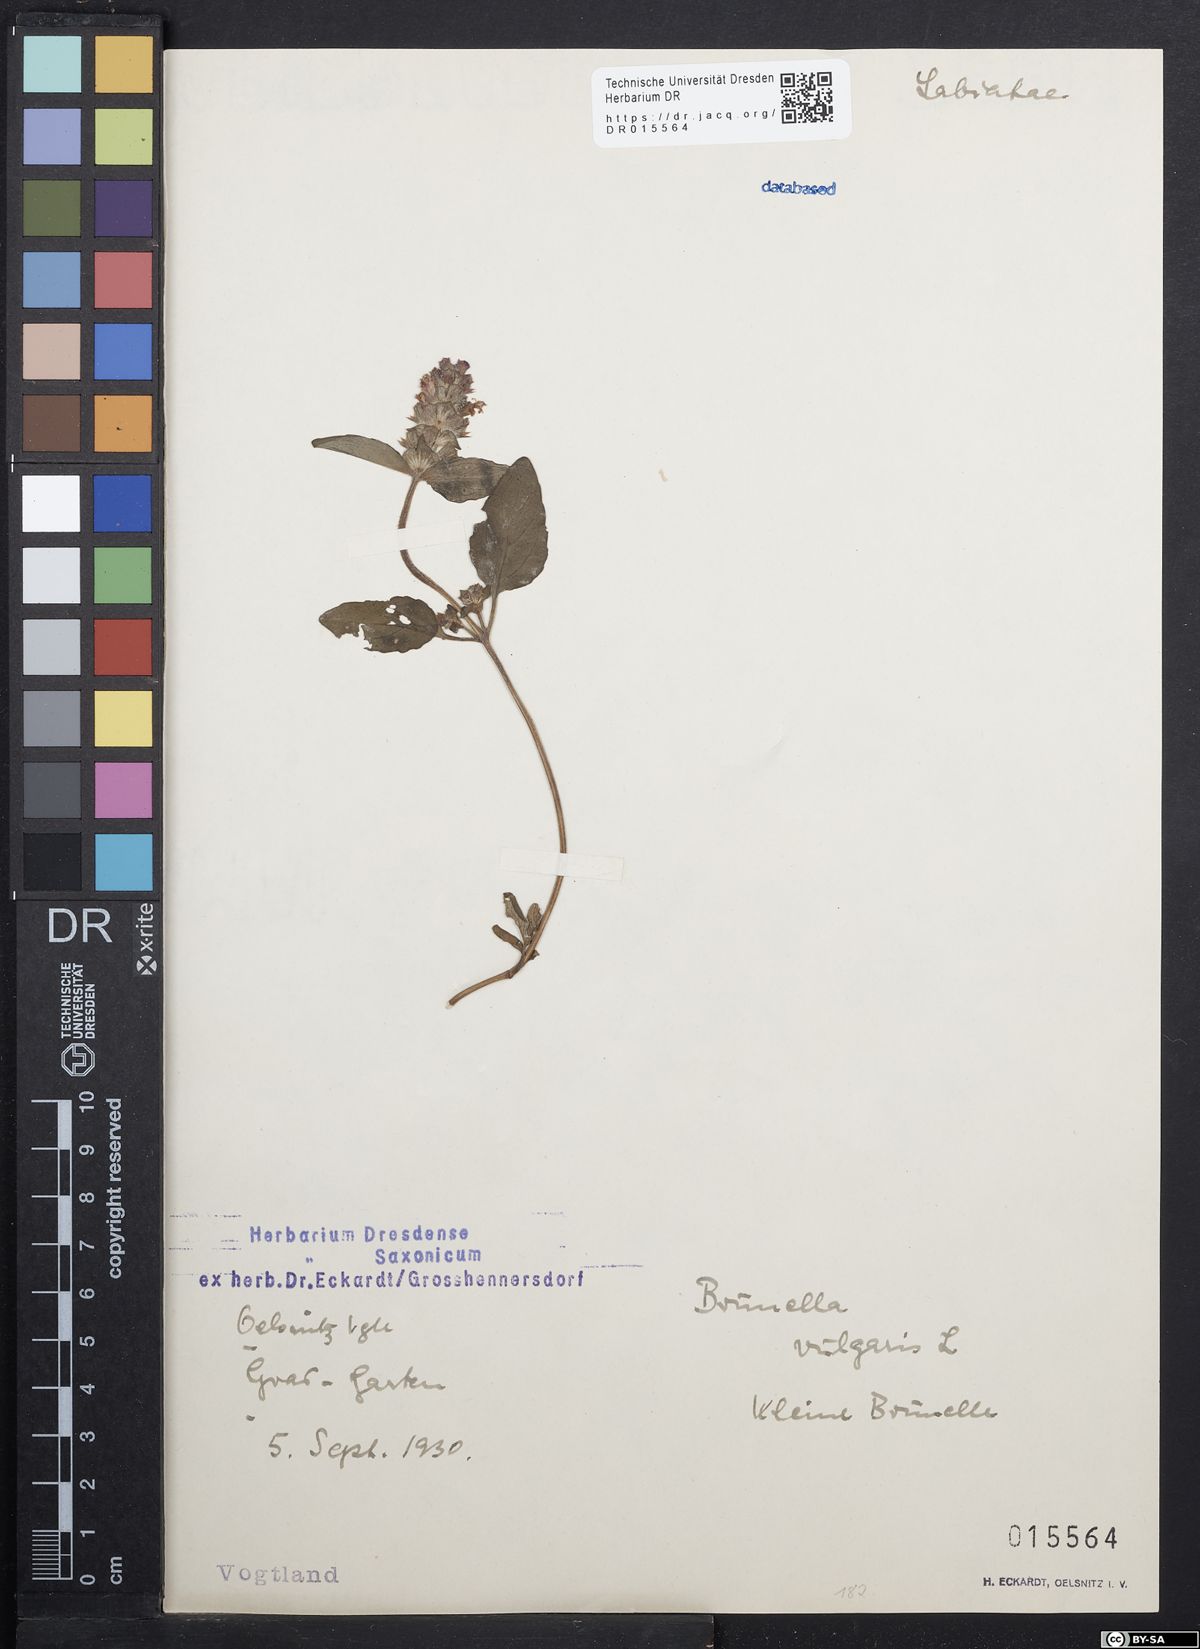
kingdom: Plantae
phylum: Tracheophyta
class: Magnoliopsida
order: Lamiales
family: Lamiaceae
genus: Prunella
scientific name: Prunella vulgaris
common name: Heal-all
